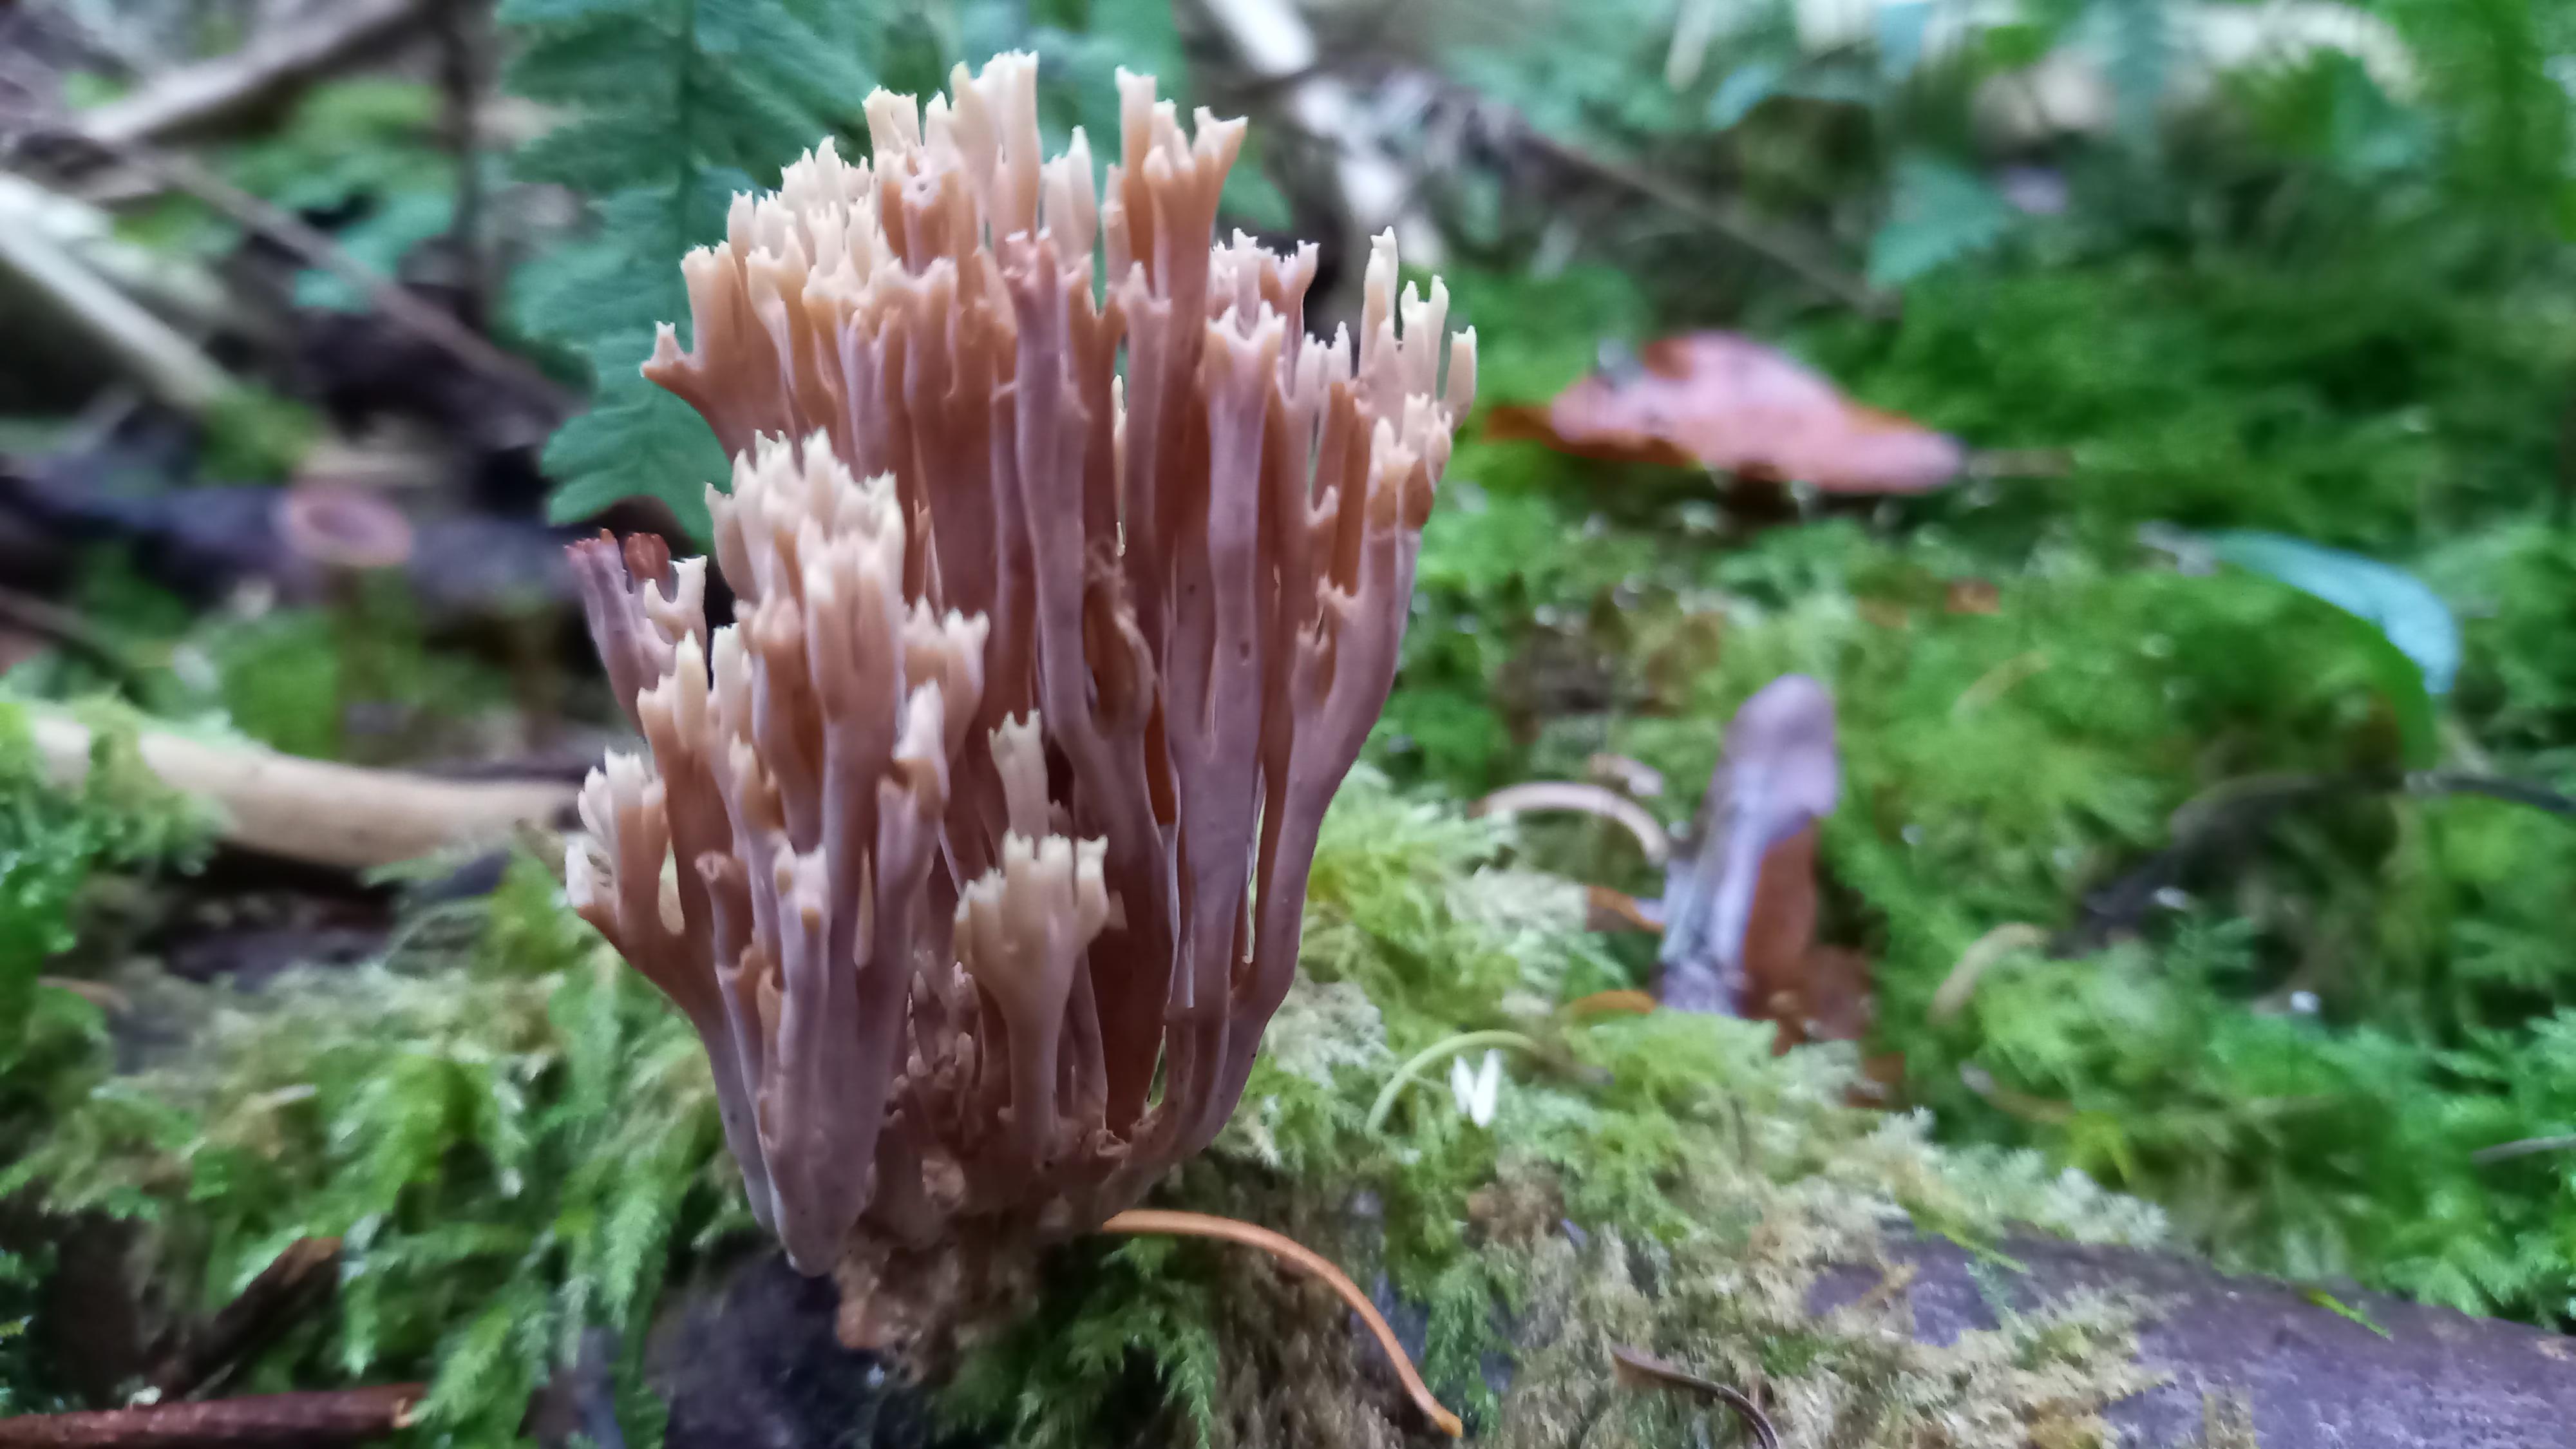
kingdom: Fungi
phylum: Basidiomycota
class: Agaricomycetes
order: Gomphales
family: Gomphaceae
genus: Ramaria
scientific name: Ramaria stricta
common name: rank koralsvamp
